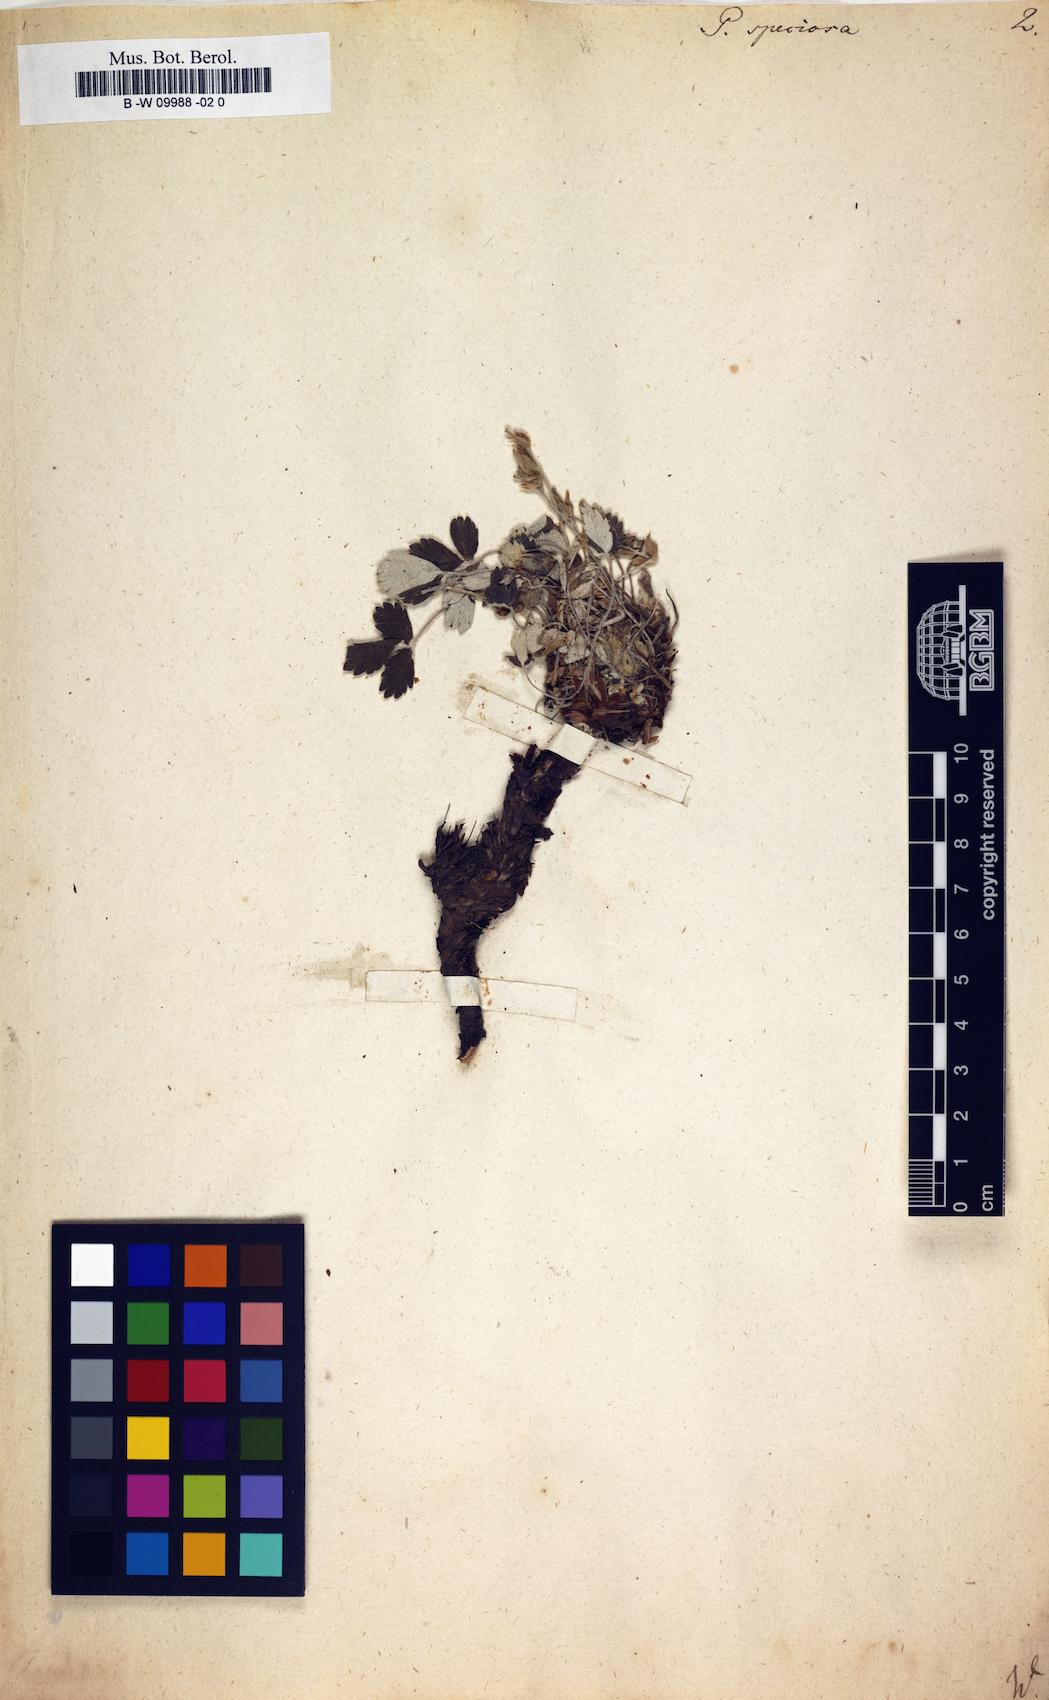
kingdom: Plantae
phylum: Tracheophyta
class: Magnoliopsida
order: Rosales
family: Rosaceae
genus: Potentilla
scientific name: Potentilla speciosa
